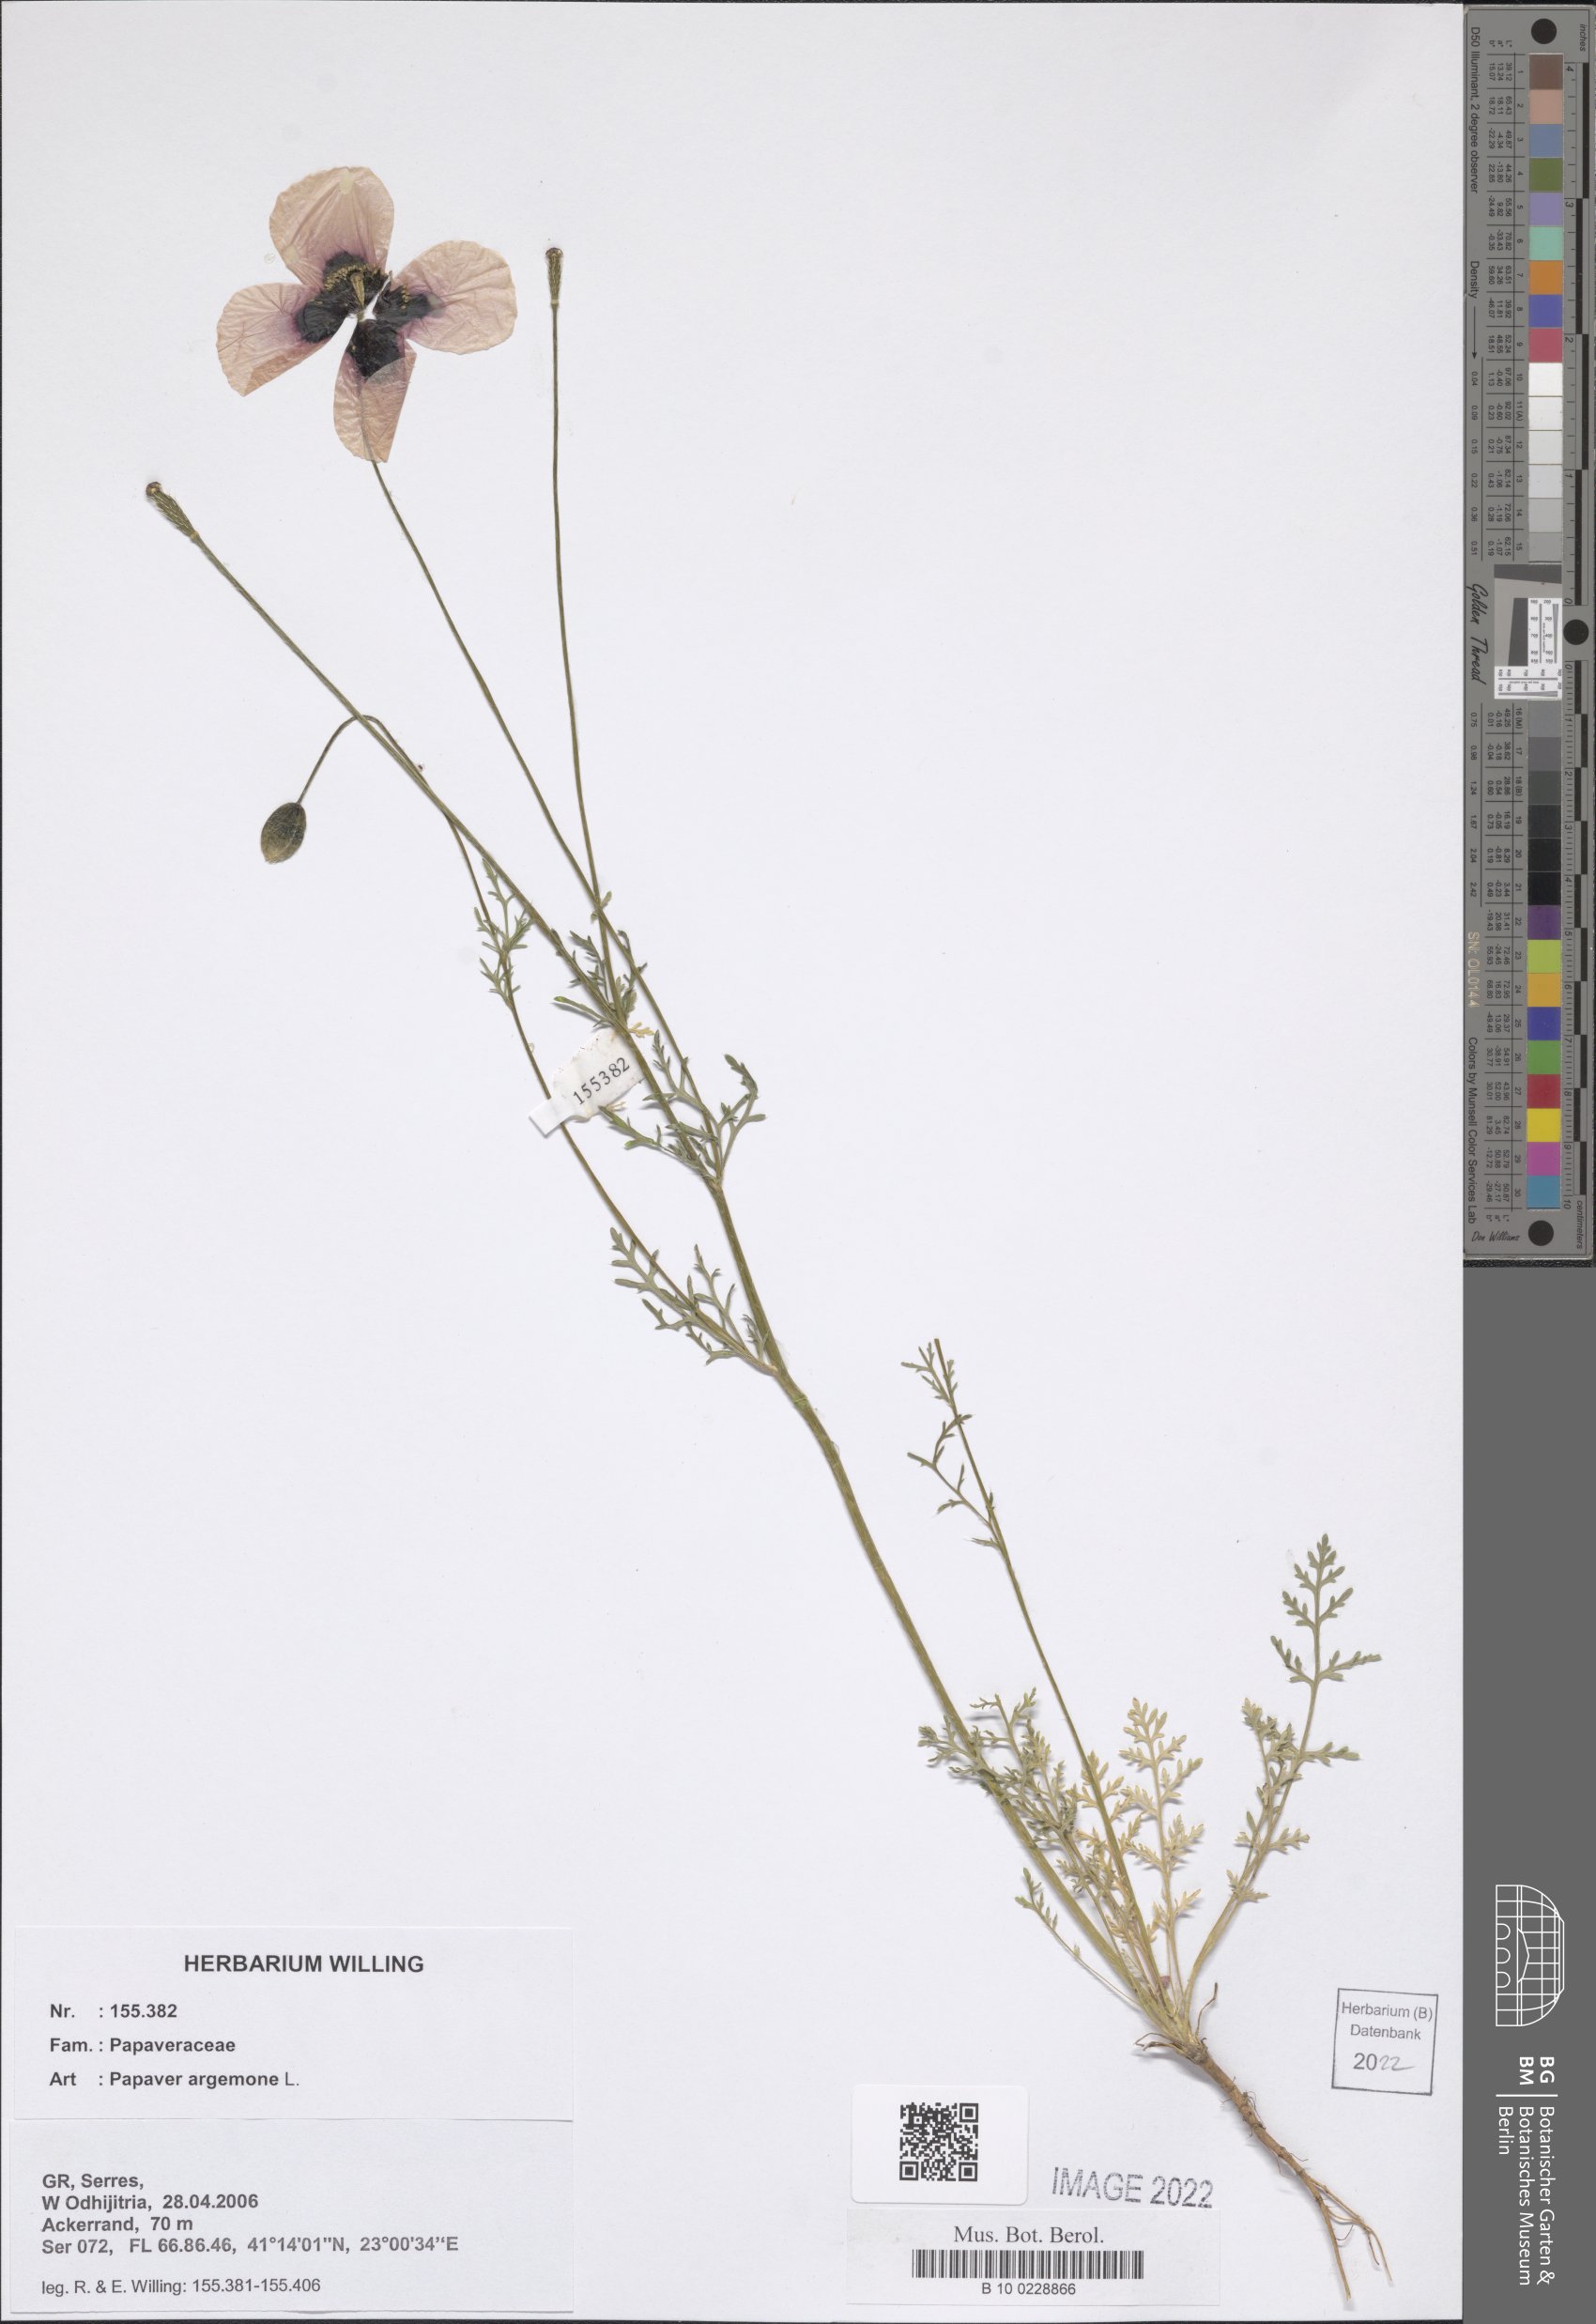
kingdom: Plantae
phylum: Tracheophyta
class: Magnoliopsida
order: Ranunculales
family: Papaveraceae
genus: Roemeria
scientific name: Roemeria argemone
